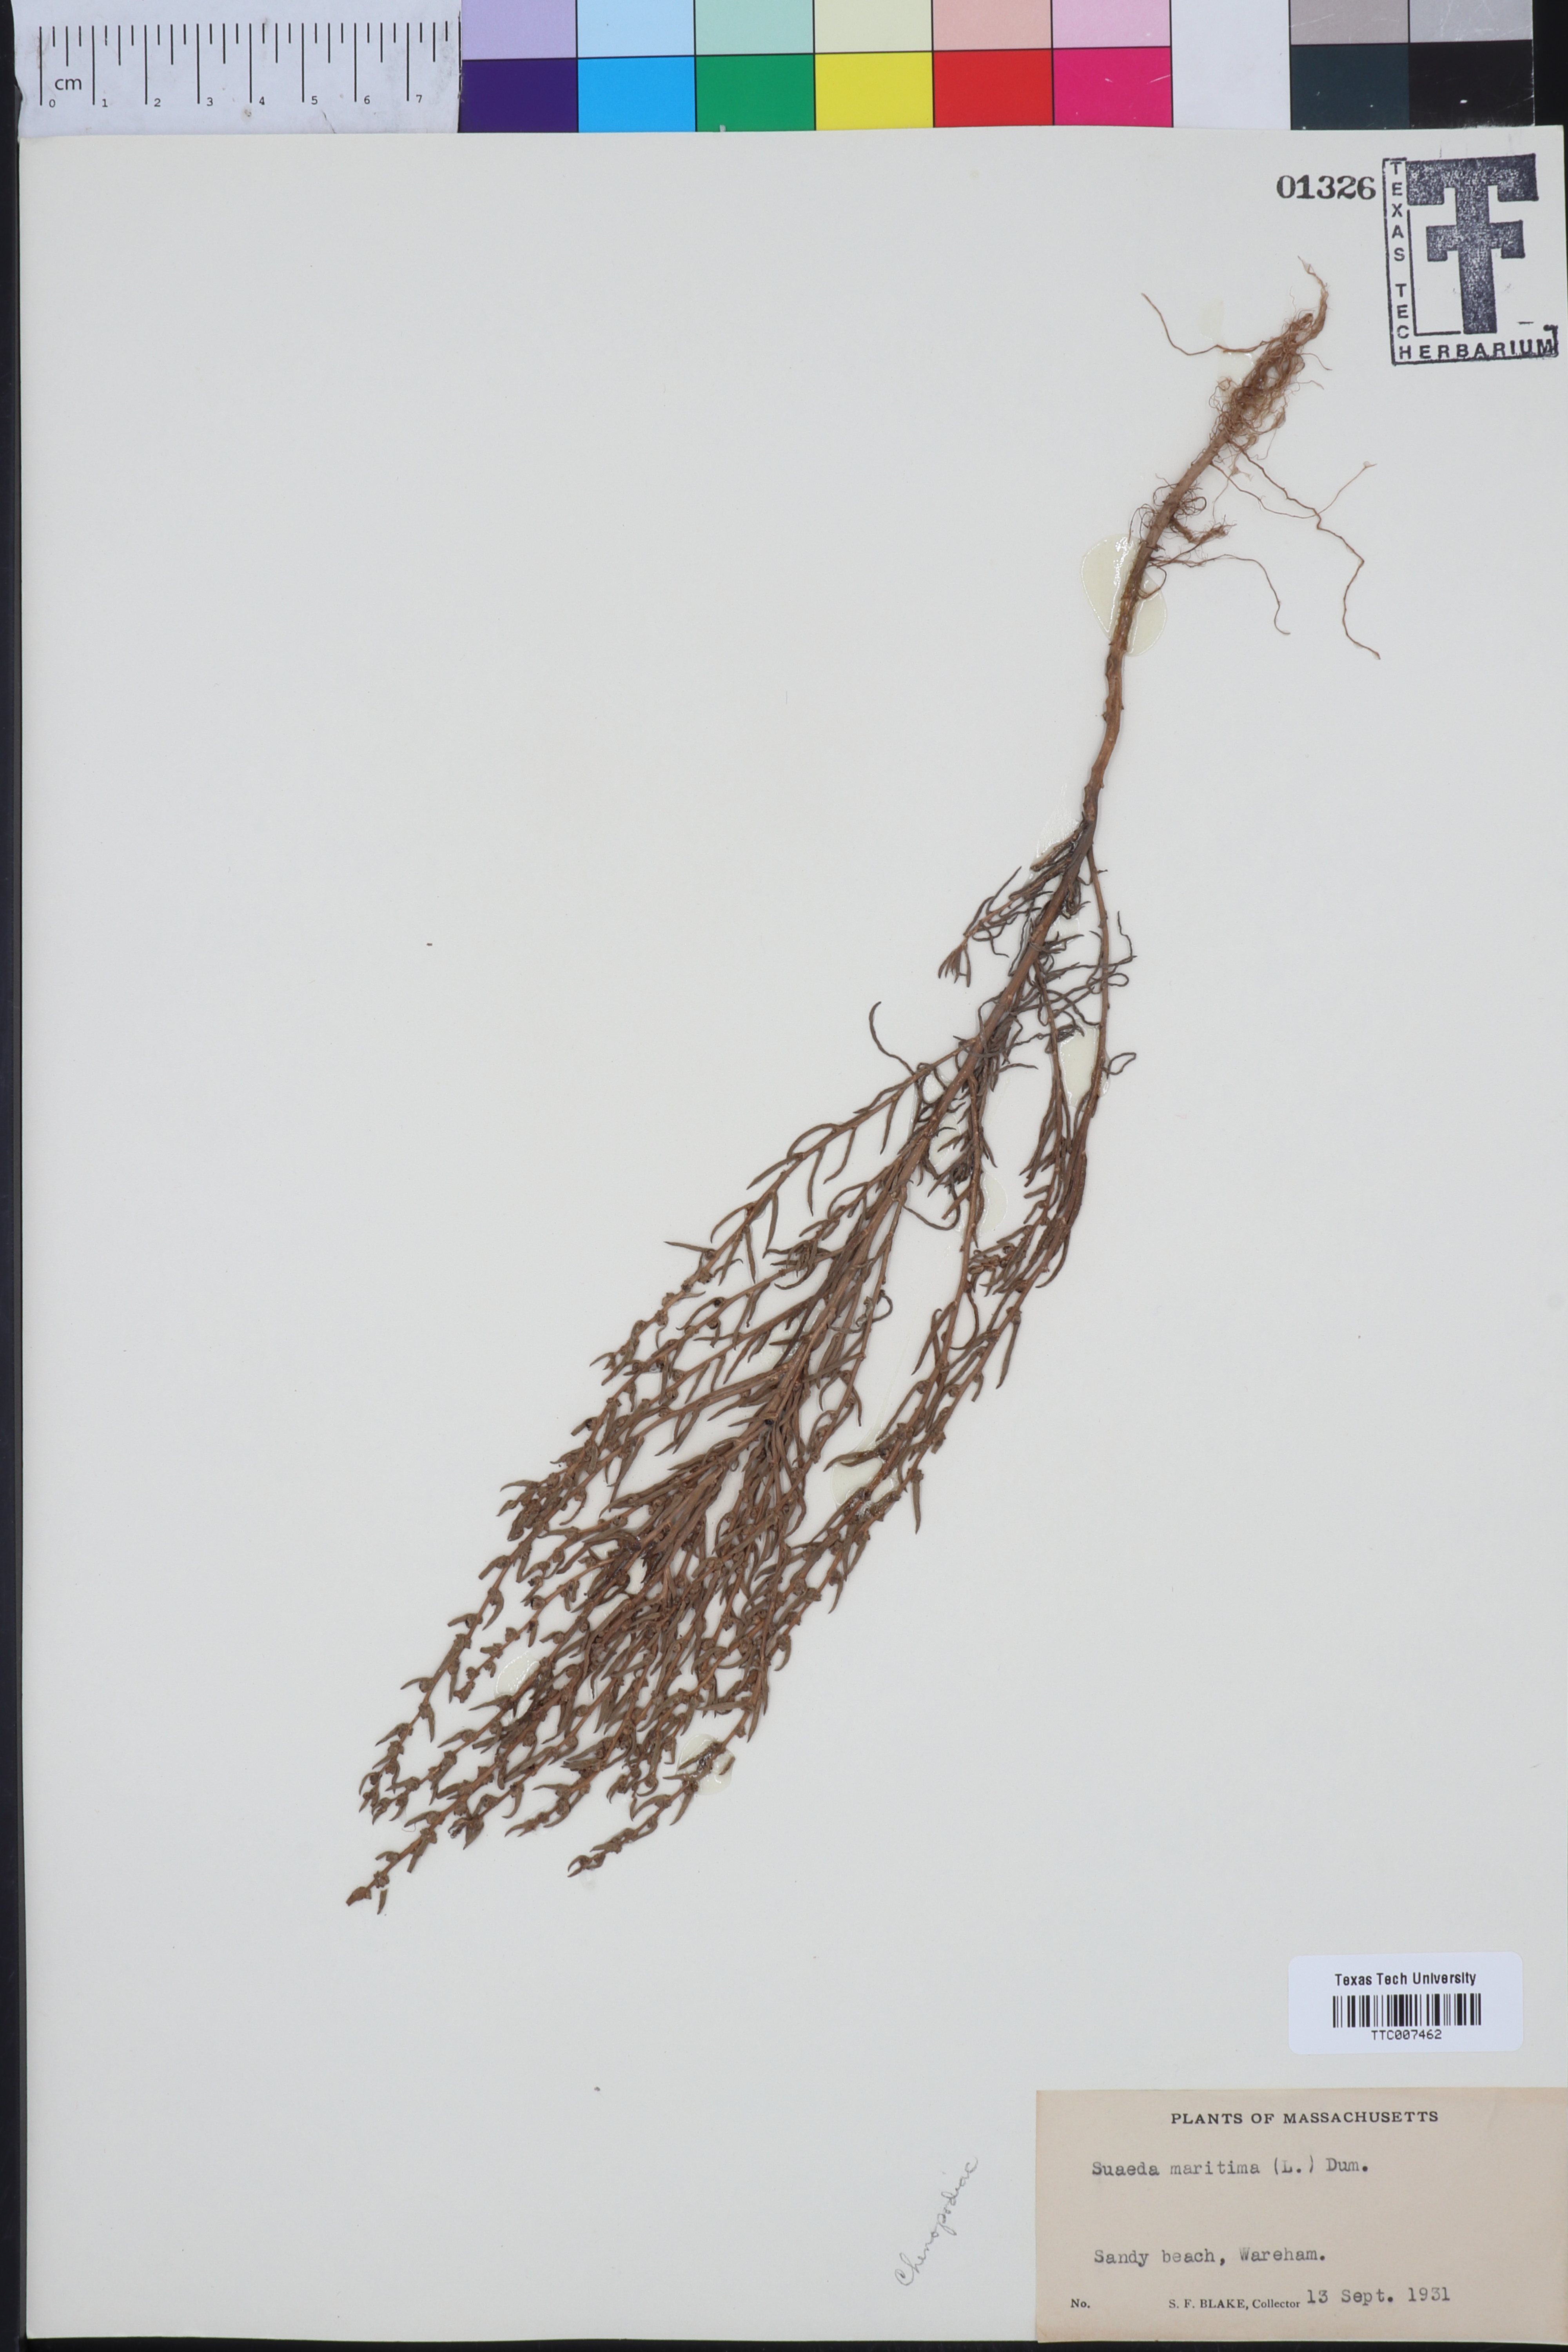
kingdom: Plantae
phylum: Tracheophyta
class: Magnoliopsida
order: Caryophyllales
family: Amaranthaceae
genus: Suaeda
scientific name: Suaeda maritima
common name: Annual sea-blite
